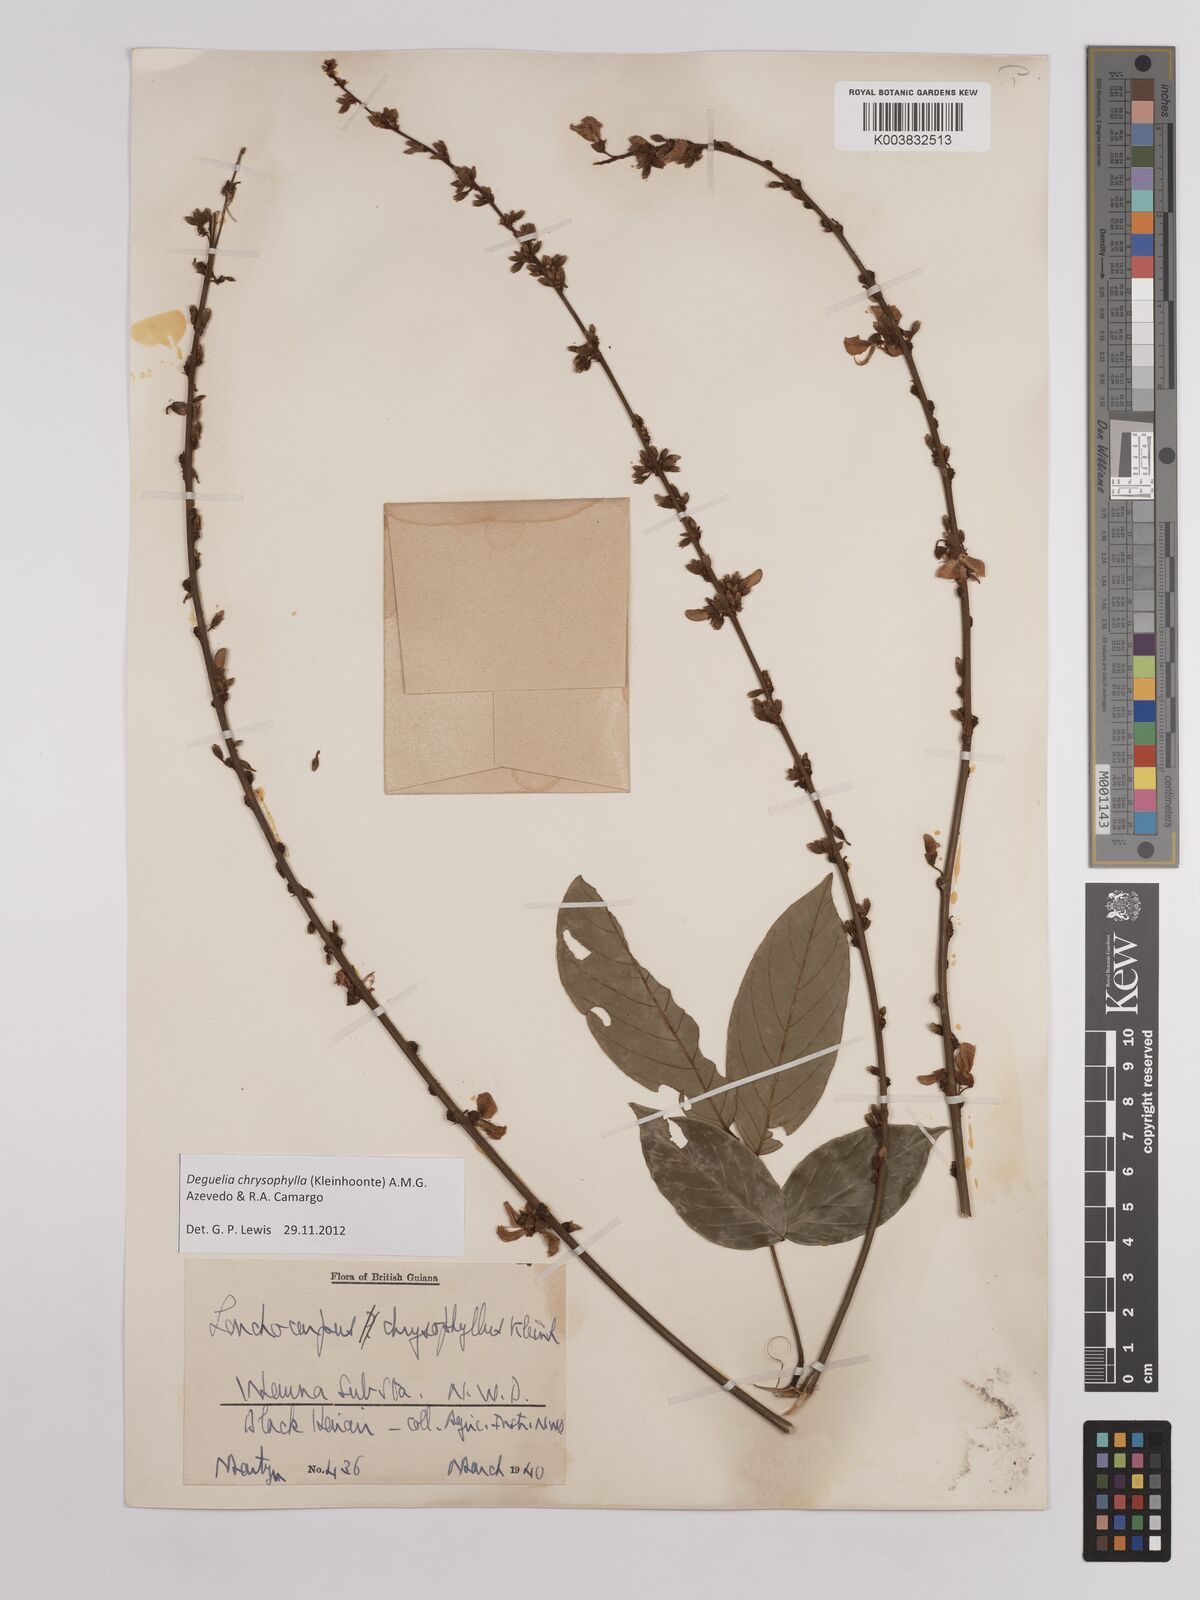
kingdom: Plantae
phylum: Tracheophyta
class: Magnoliopsida
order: Fabales
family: Fabaceae
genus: Deguelia
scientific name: Deguelia chrysophylla
